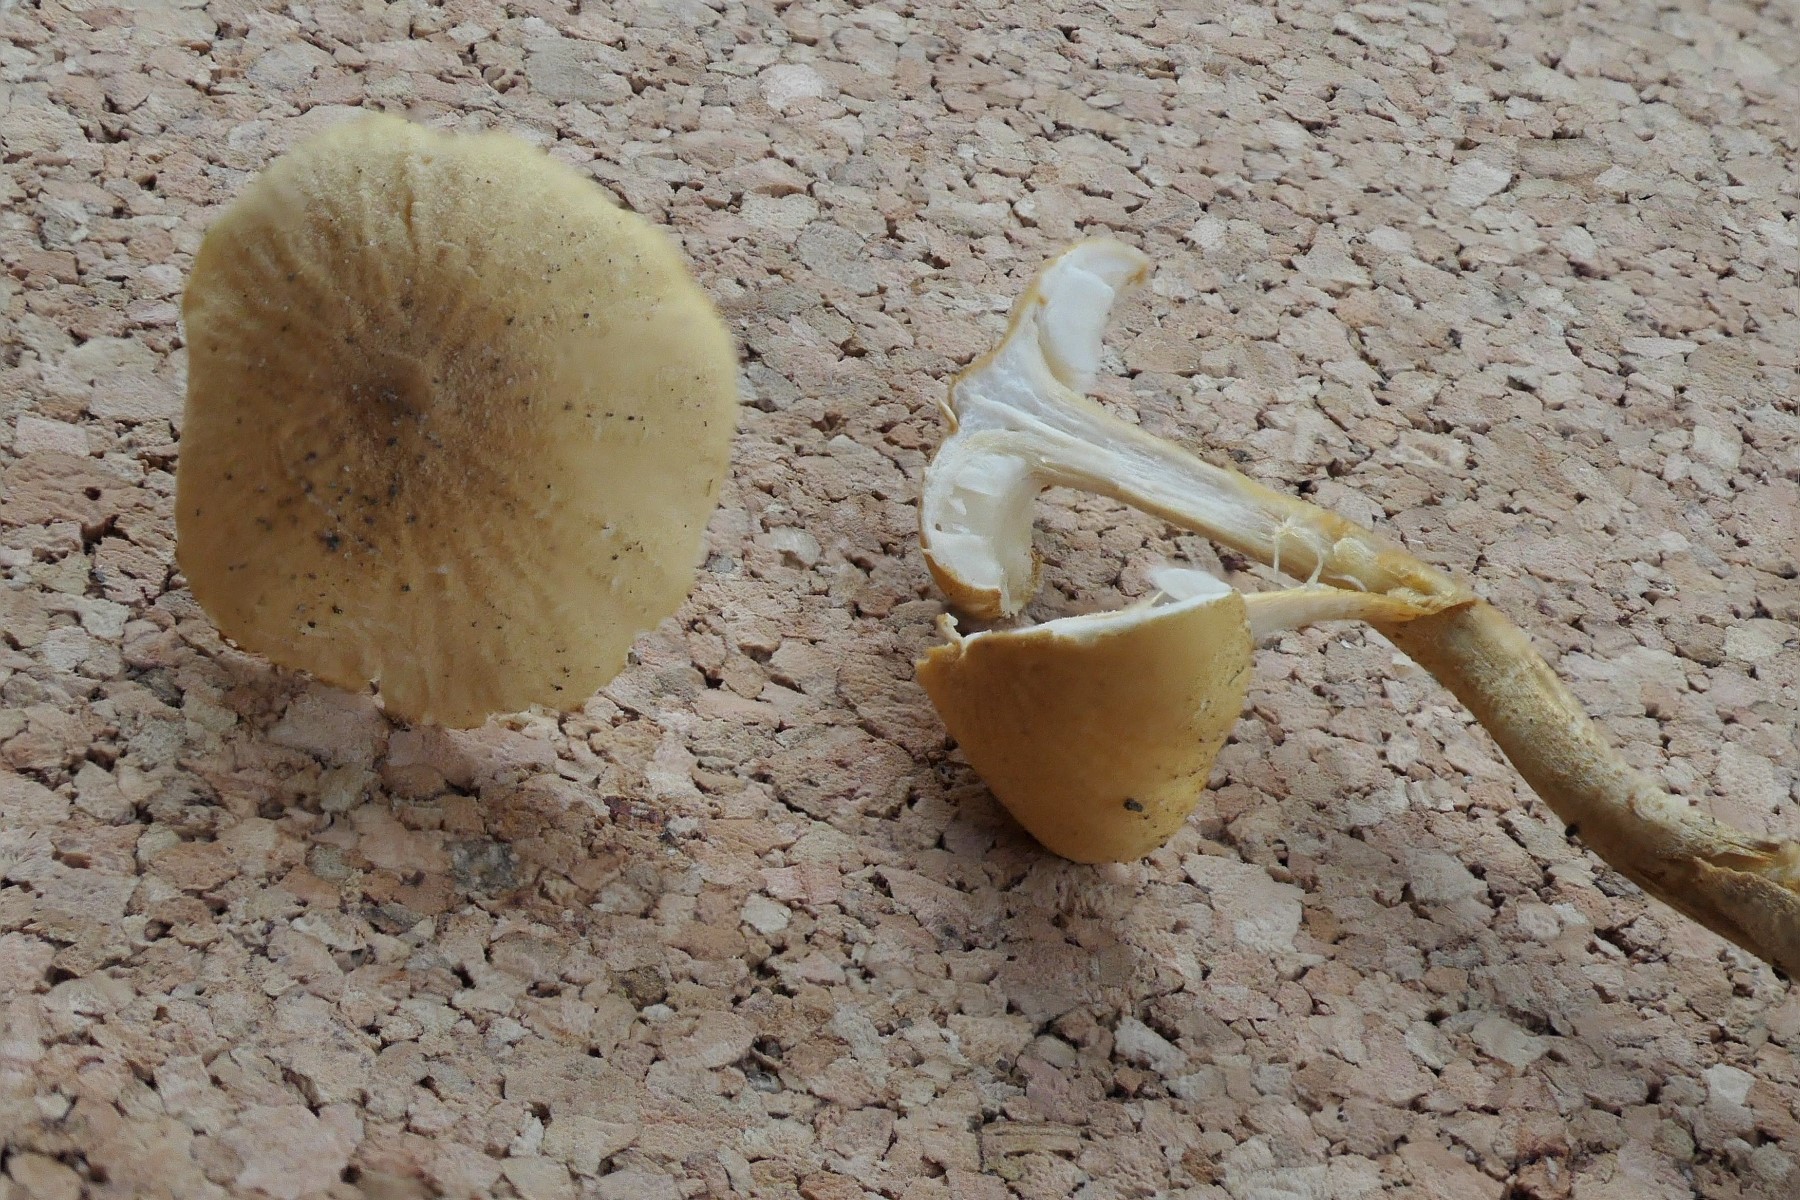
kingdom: Fungi
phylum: Basidiomycota
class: Agaricomycetes
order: Agaricales
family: Tricholomataceae
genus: Cystoderma
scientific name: Cystoderma amianthinum
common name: okkergul grynhat
